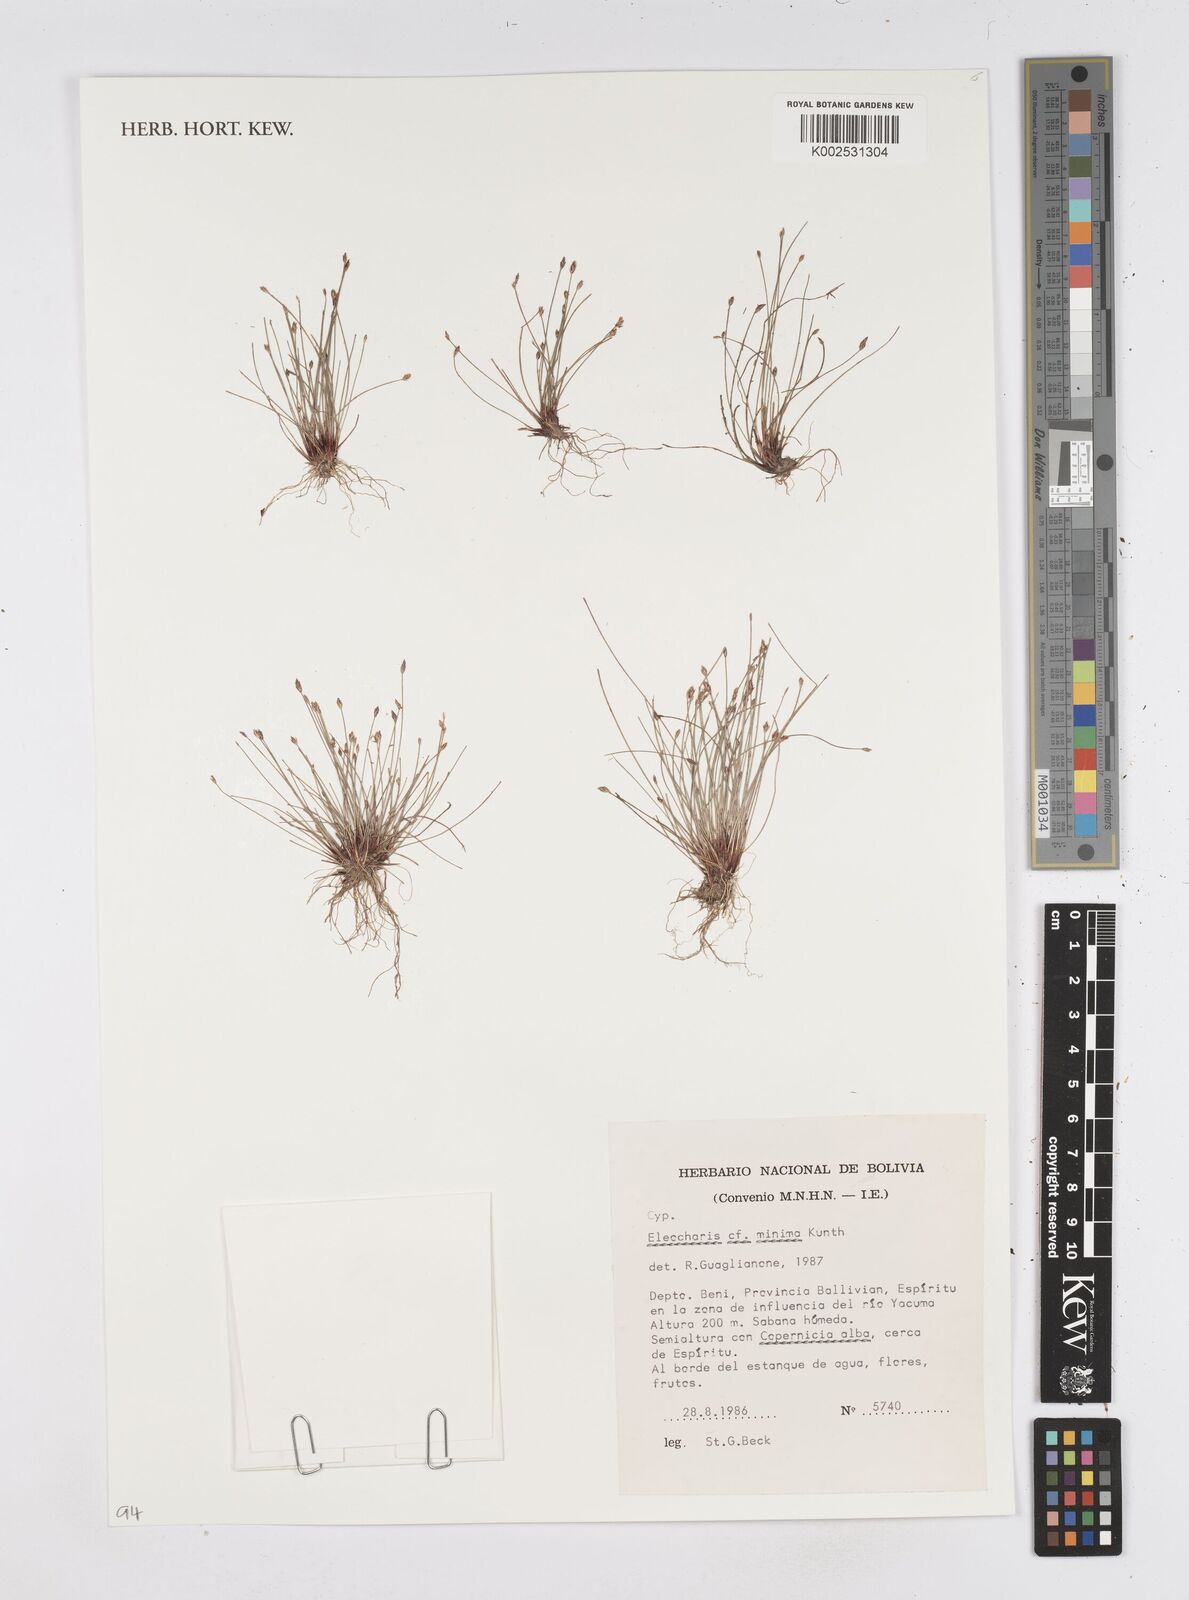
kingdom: Plantae
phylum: Tracheophyta
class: Liliopsida
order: Poales
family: Cyperaceae
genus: Eleocharis
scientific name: Eleocharis minima
